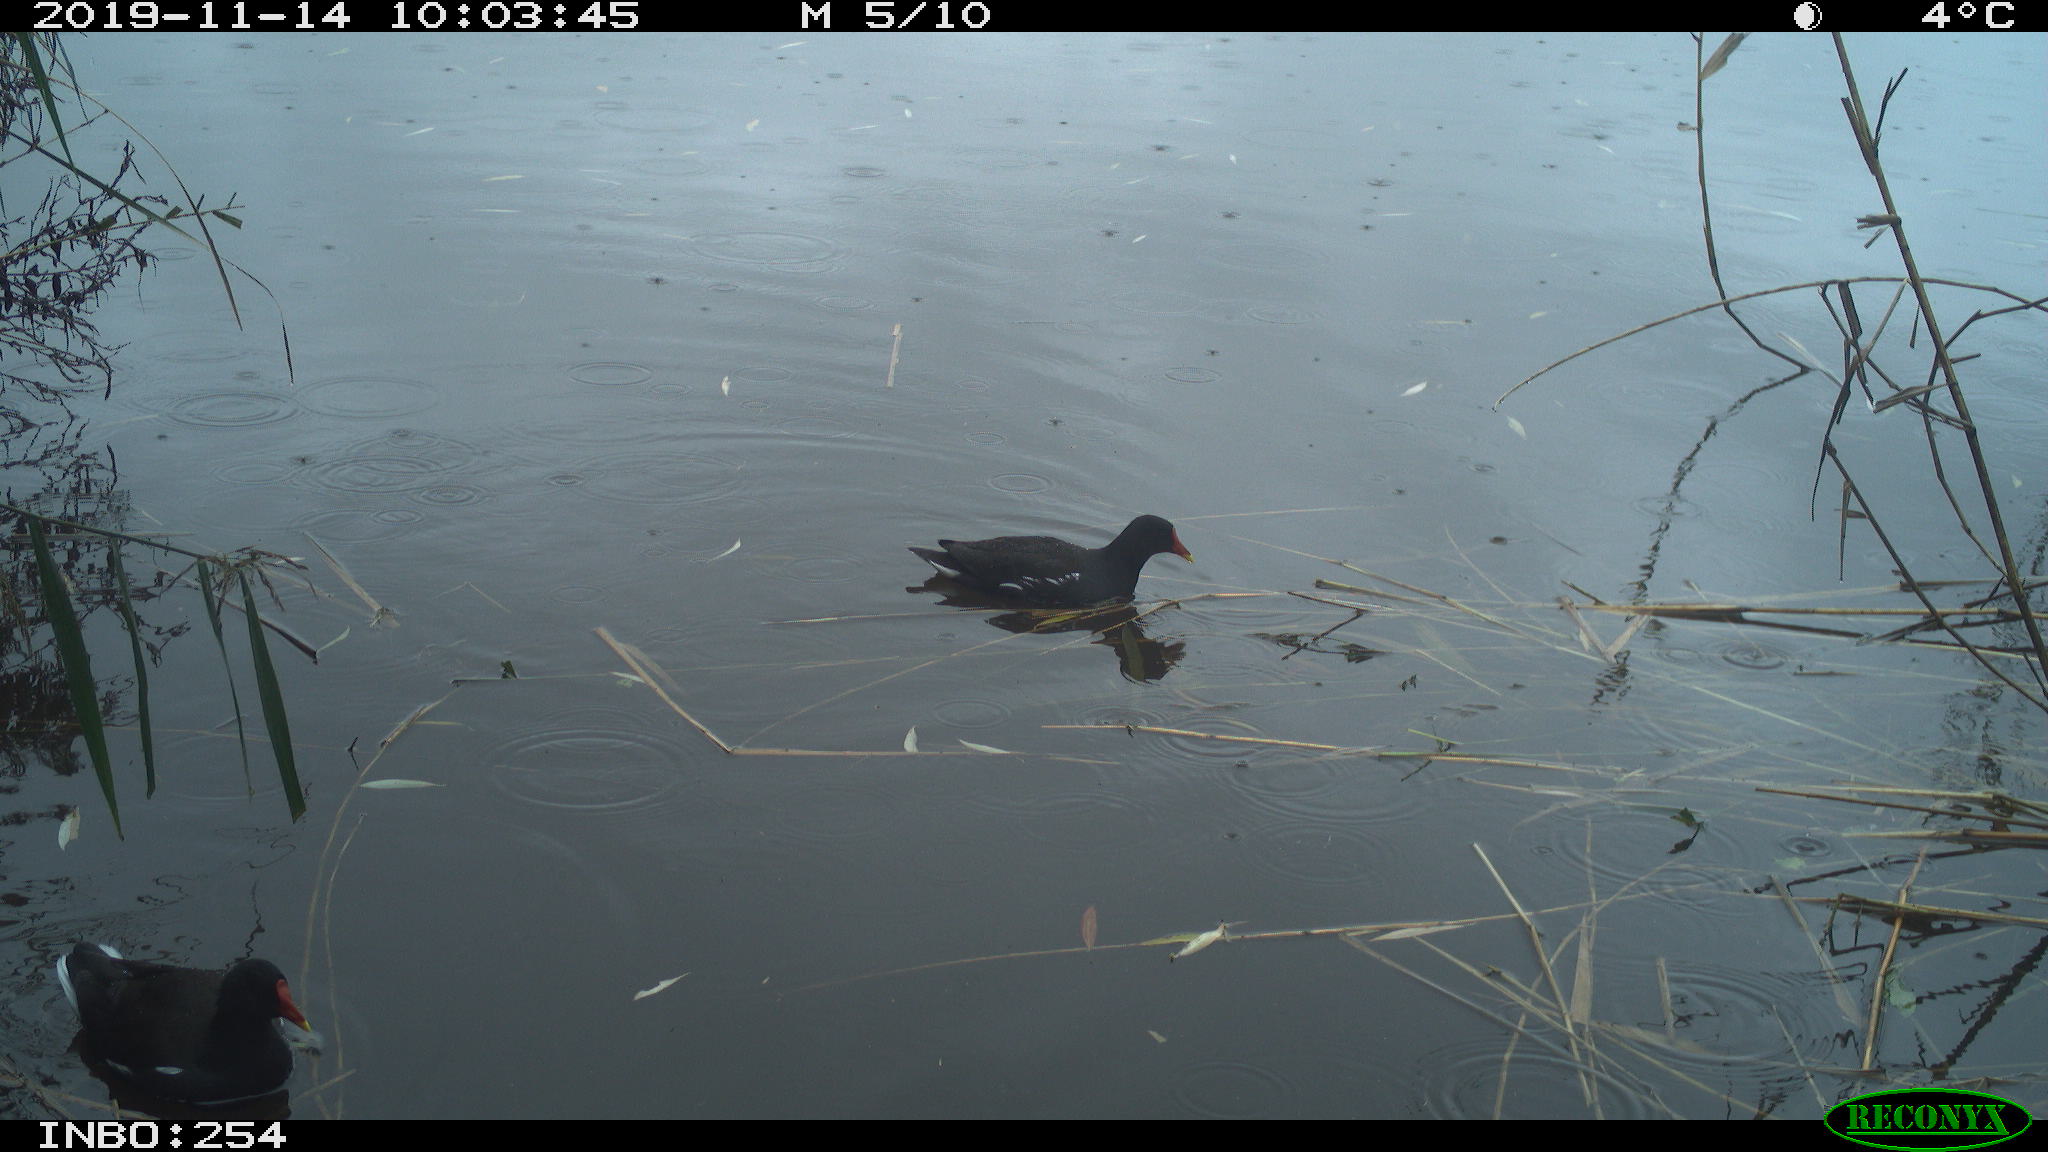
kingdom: Animalia
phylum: Chordata
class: Aves
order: Gruiformes
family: Rallidae
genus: Gallinula
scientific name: Gallinula chloropus
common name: Common moorhen
